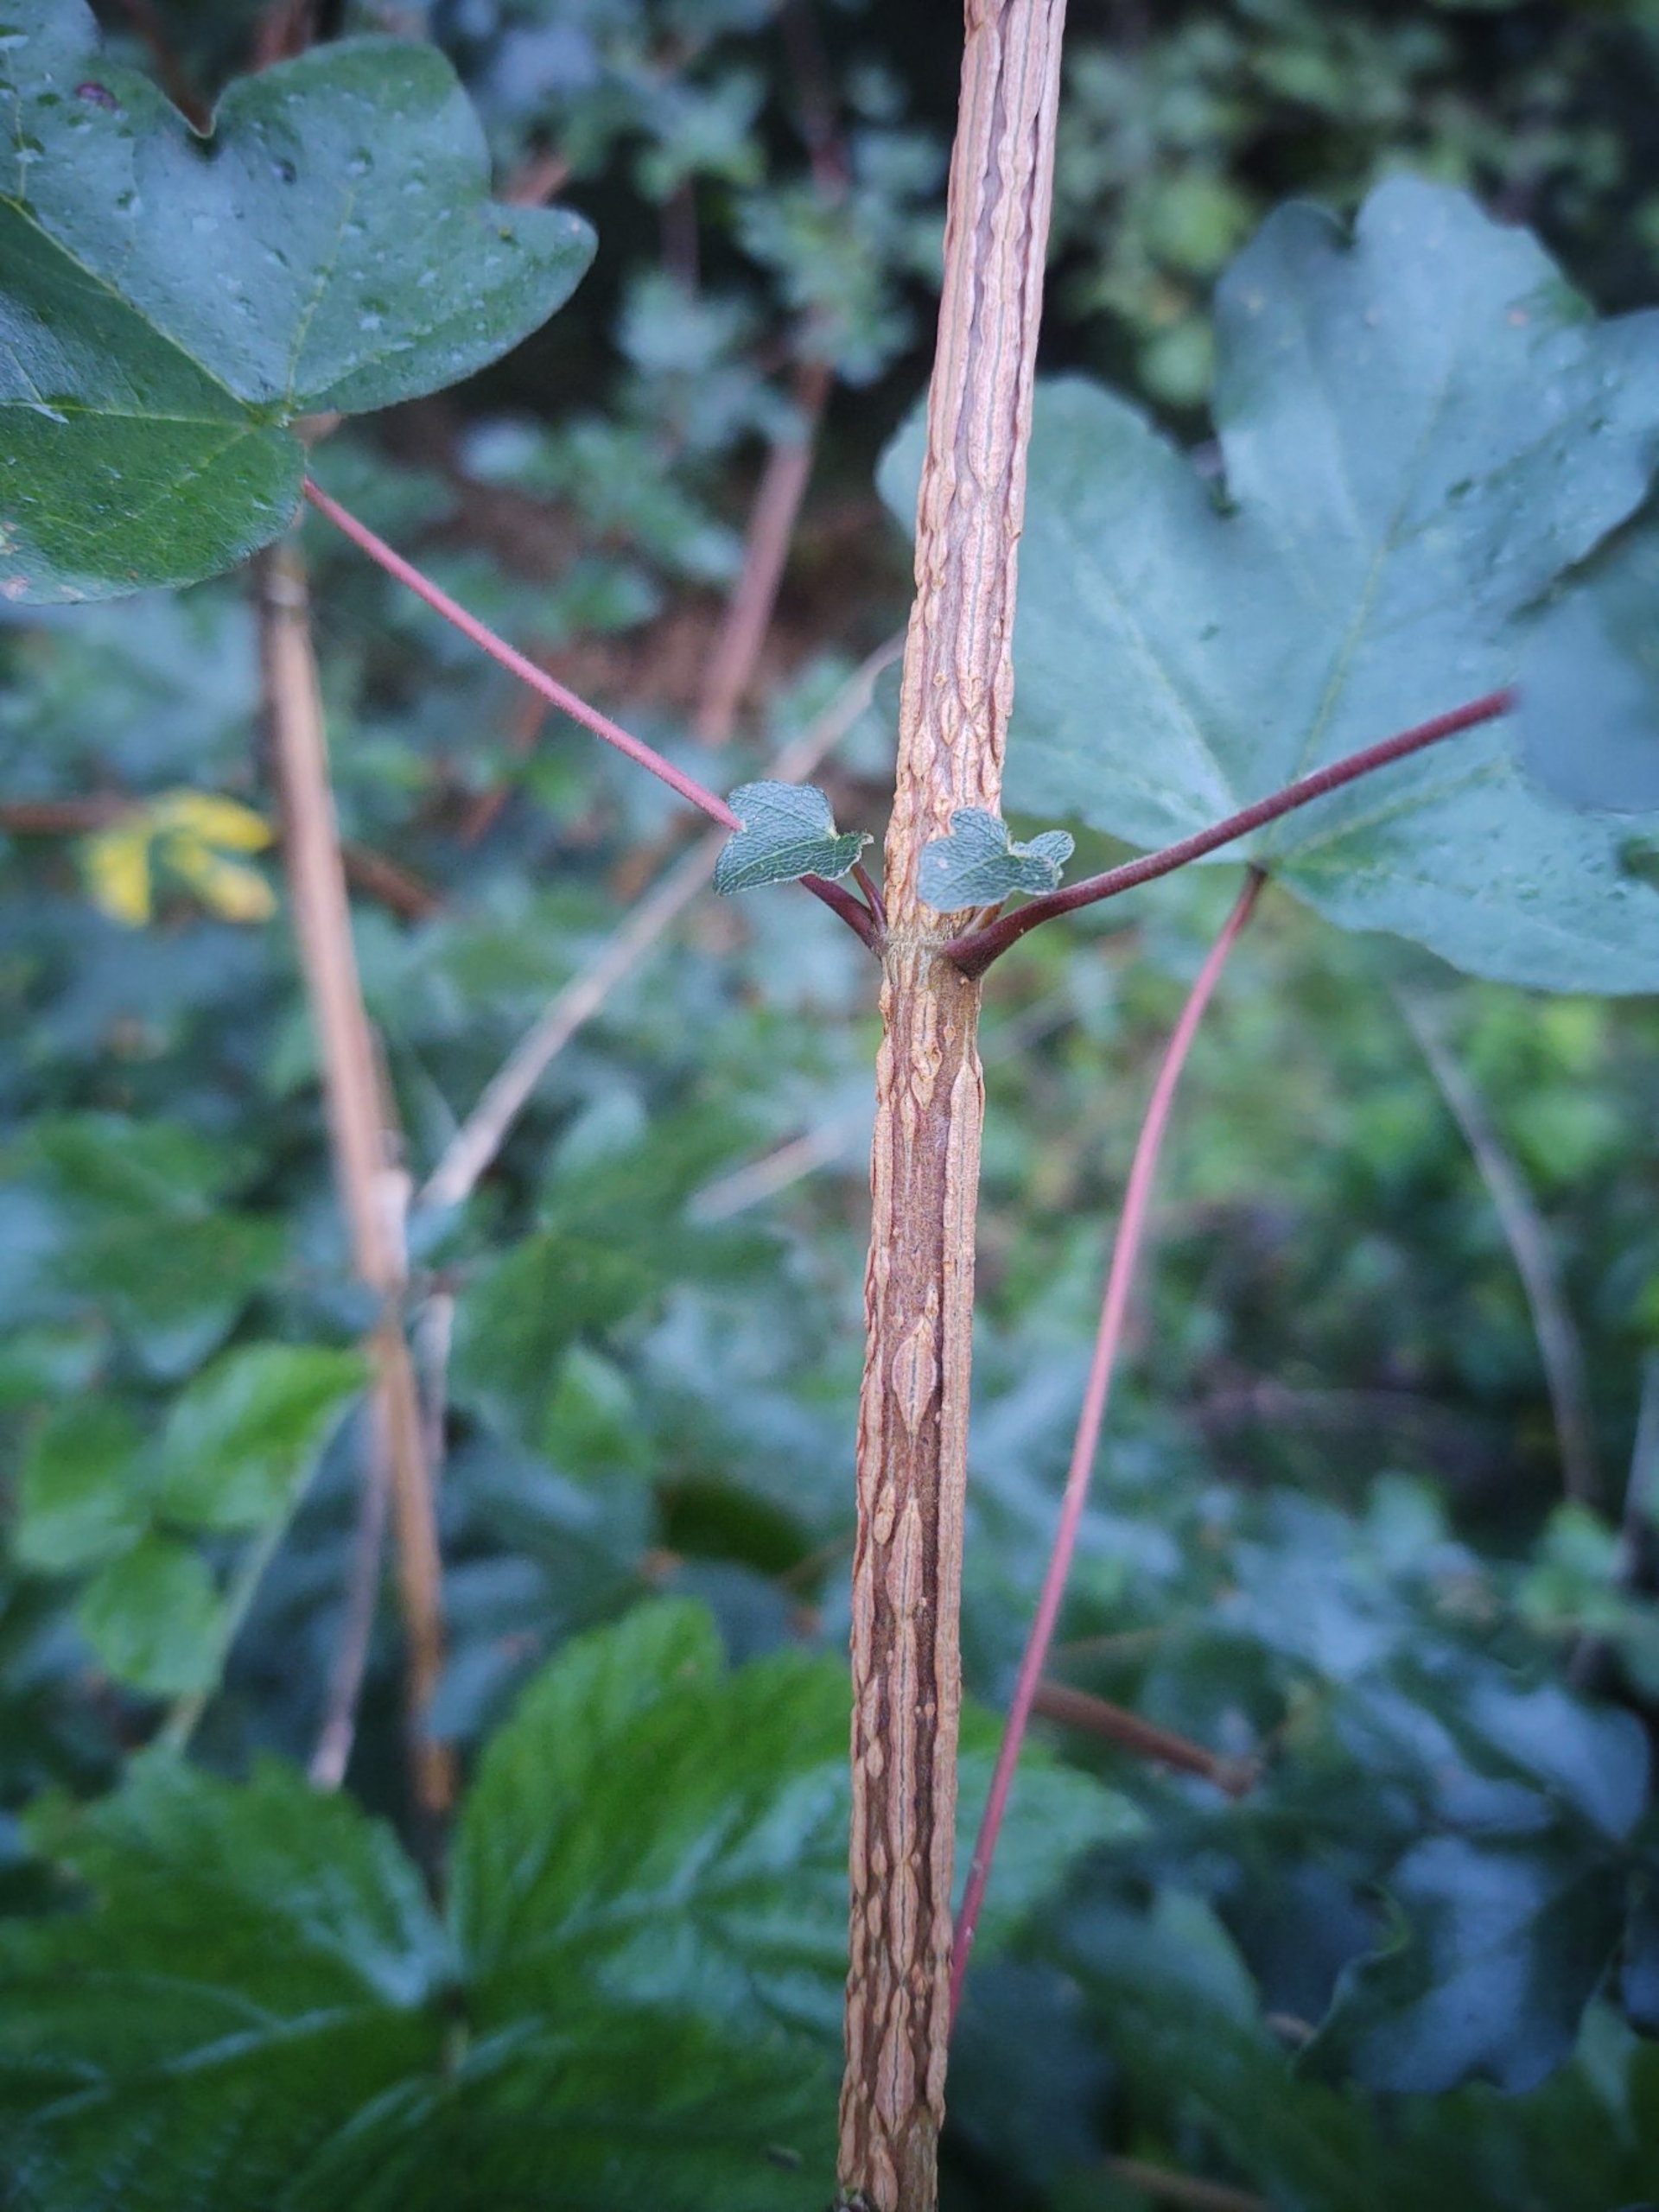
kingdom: Plantae
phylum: Tracheophyta
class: Magnoliopsida
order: Sapindales
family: Sapindaceae
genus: Acer
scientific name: Acer campestre
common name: Navr
